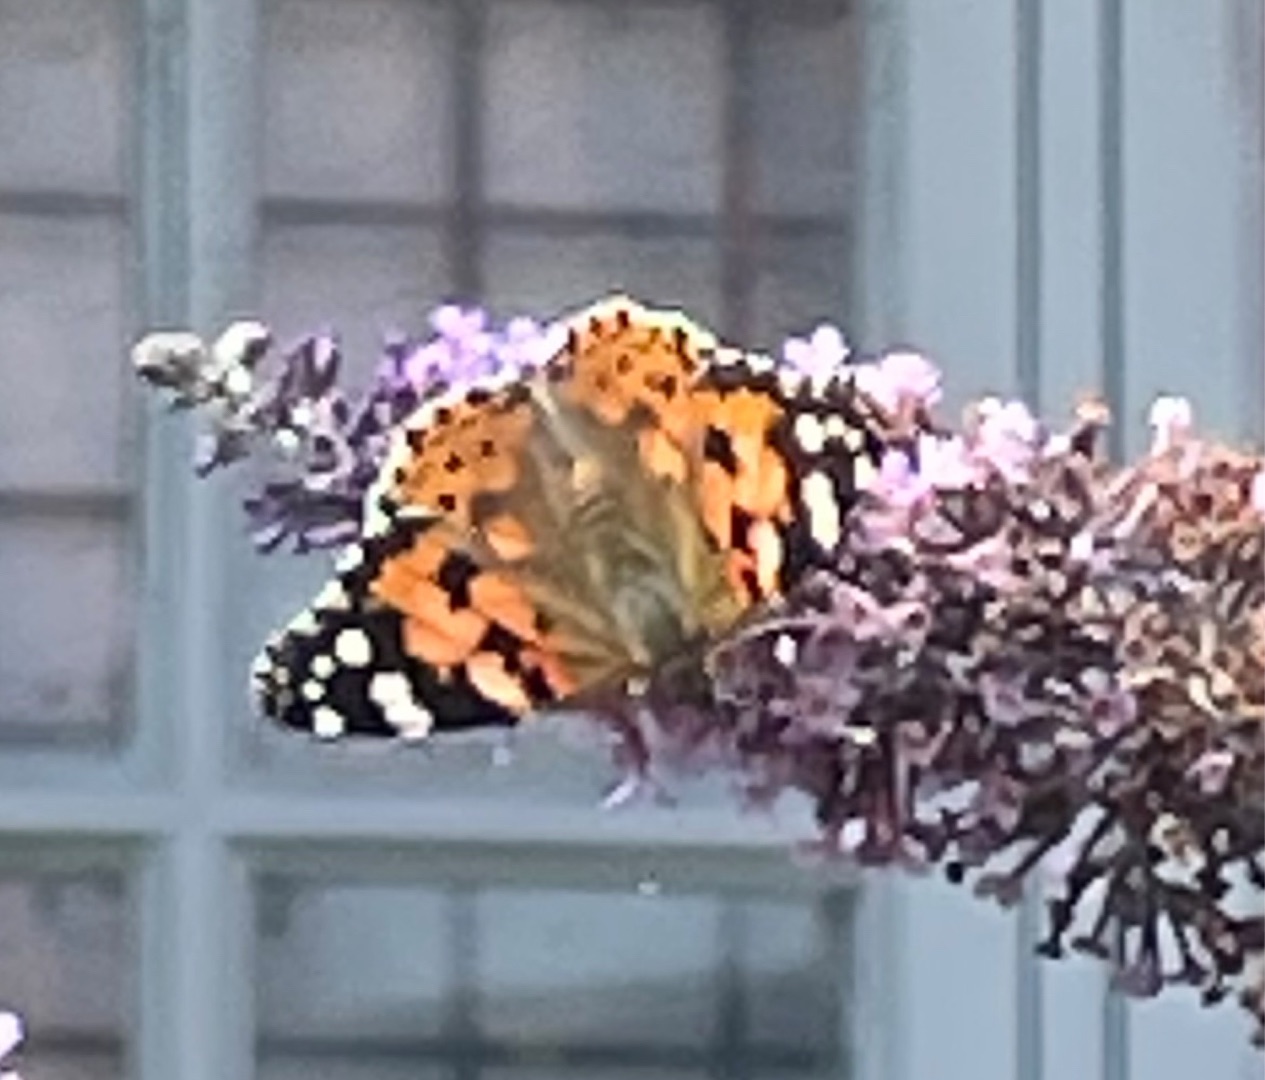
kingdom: Animalia
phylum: Arthropoda
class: Insecta
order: Lepidoptera
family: Nymphalidae
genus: Vanessa
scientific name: Vanessa cardui
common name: Tidselsommerfugl
